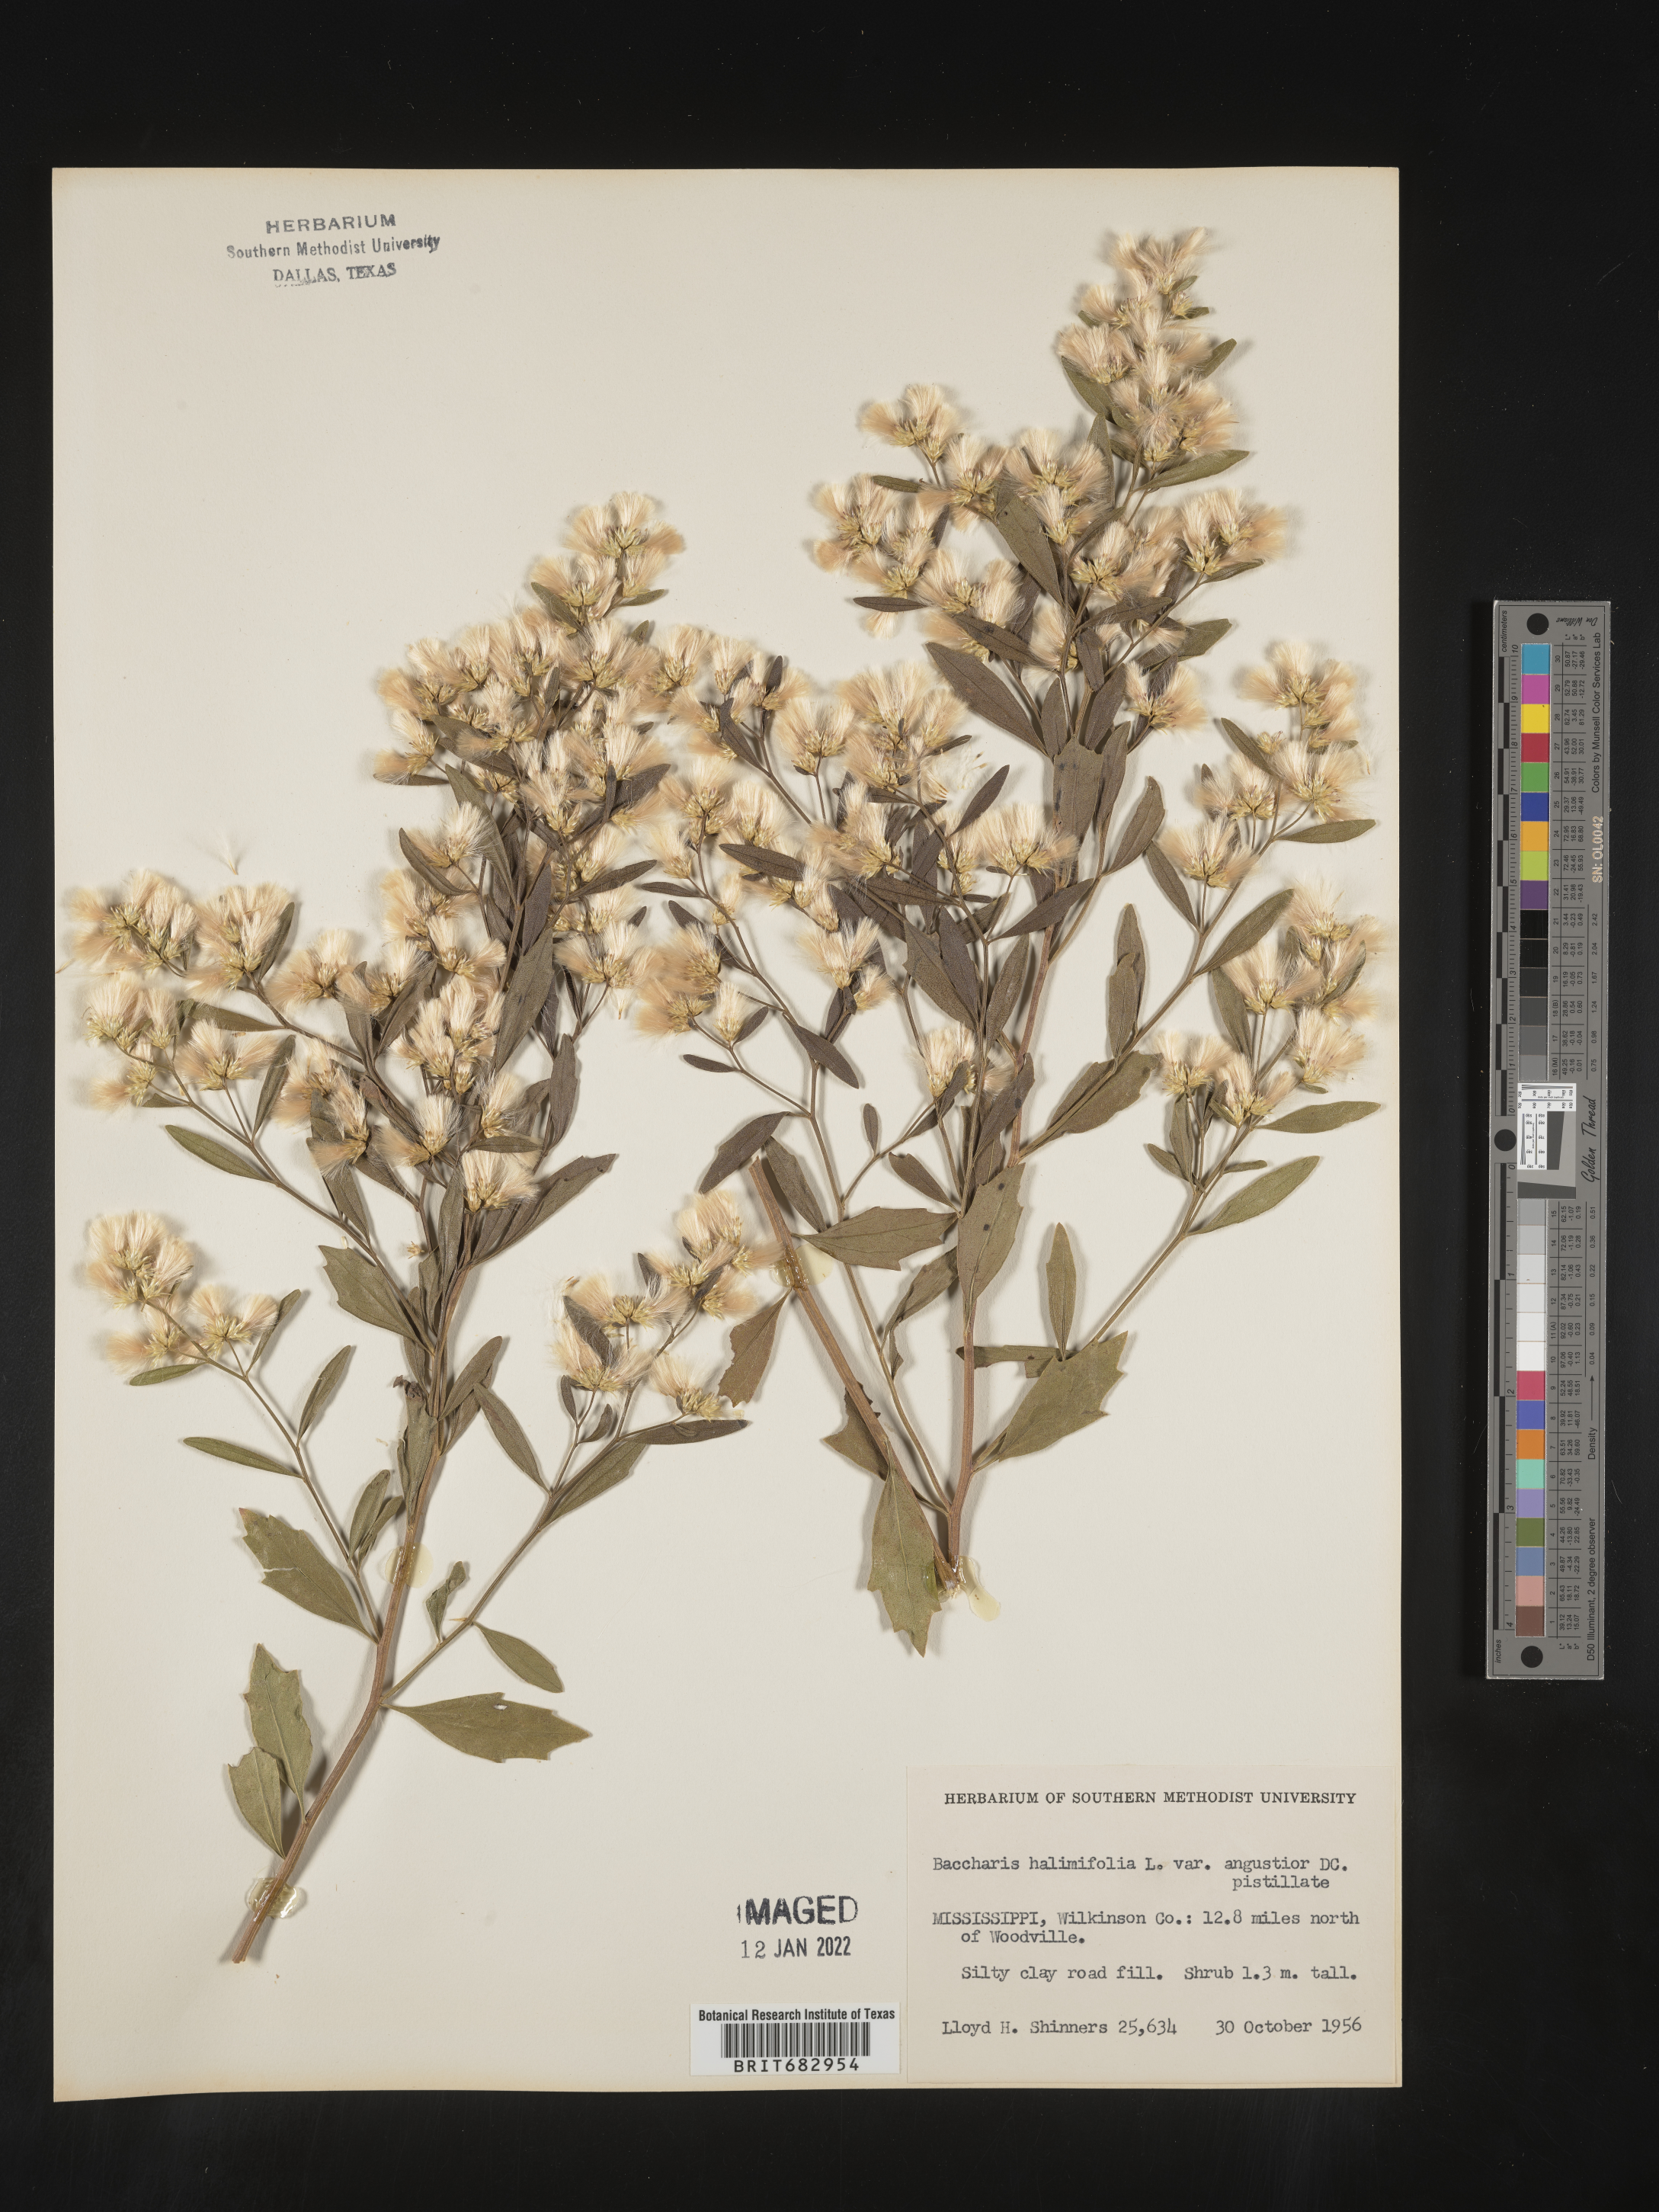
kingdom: Plantae
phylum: Tracheophyta
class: Magnoliopsida
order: Asterales
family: Asteraceae
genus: Nidorella
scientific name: Nidorella ivifolia
